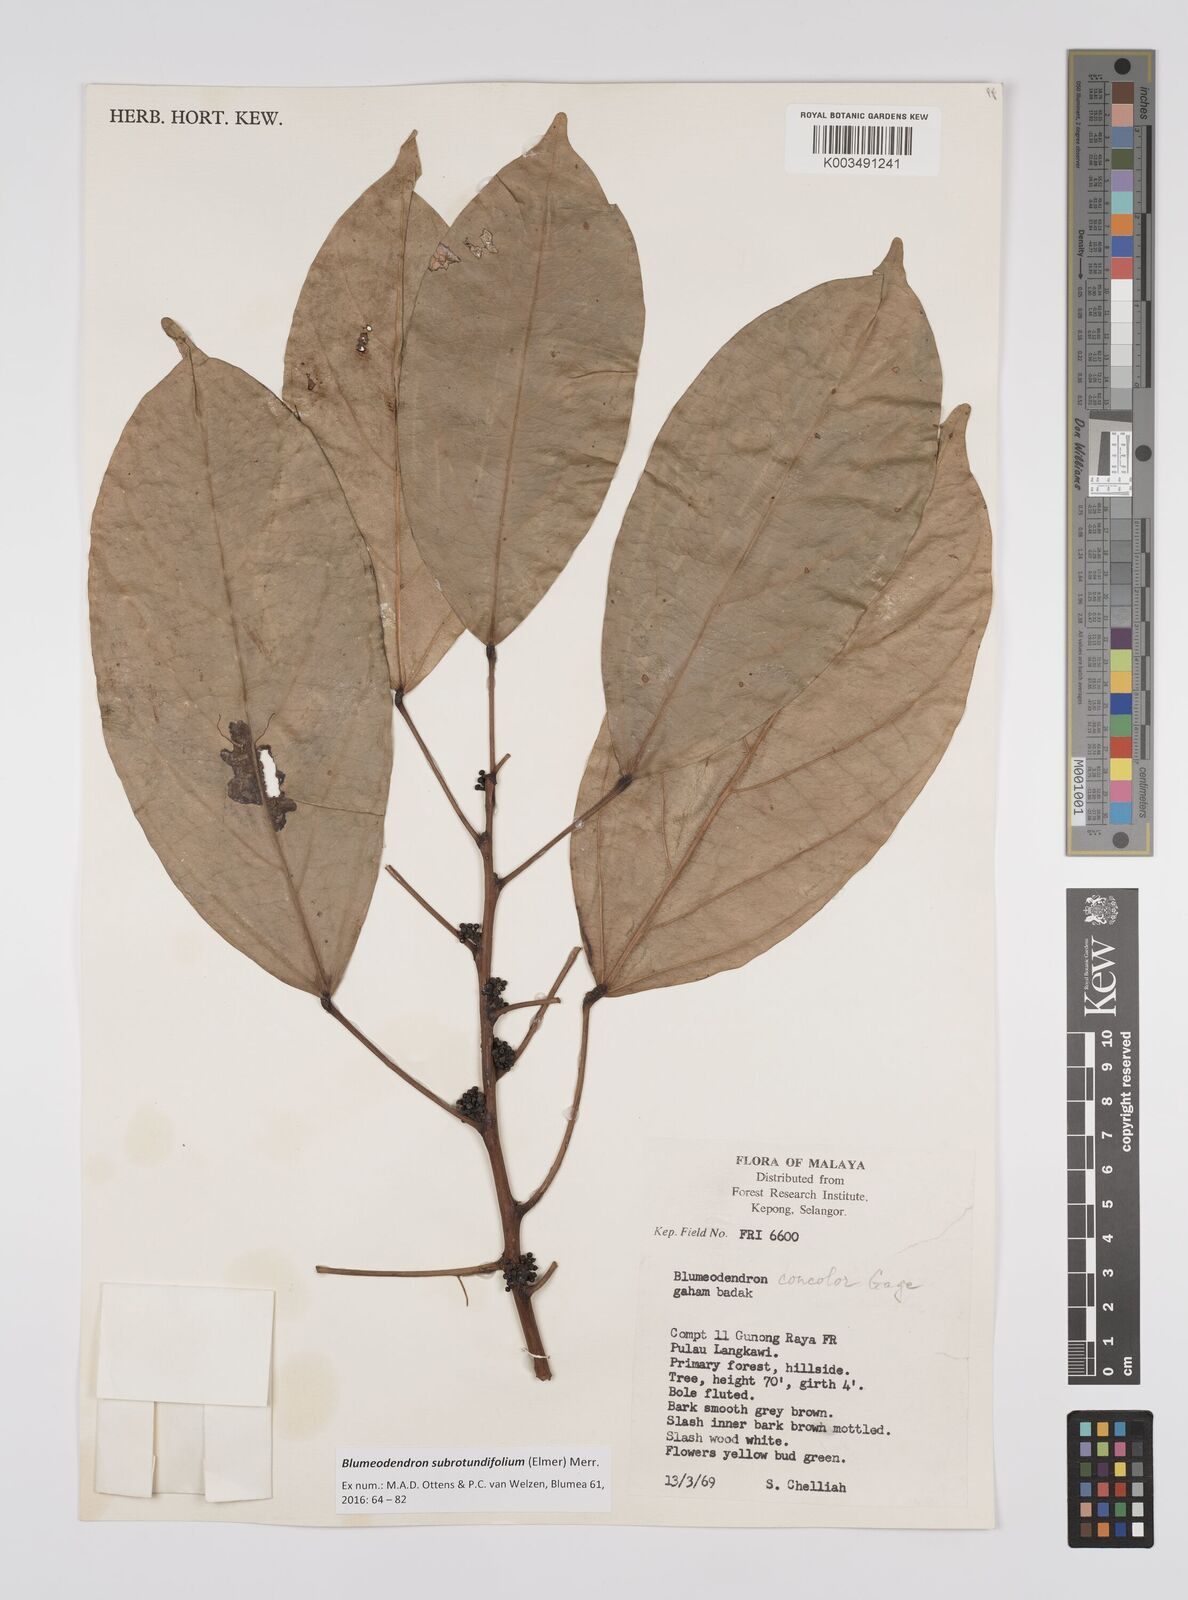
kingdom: Plantae
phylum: Tracheophyta
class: Magnoliopsida
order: Malpighiales
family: Euphorbiaceae
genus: Blumeodendron
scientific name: Blumeodendron subrotundifolium
